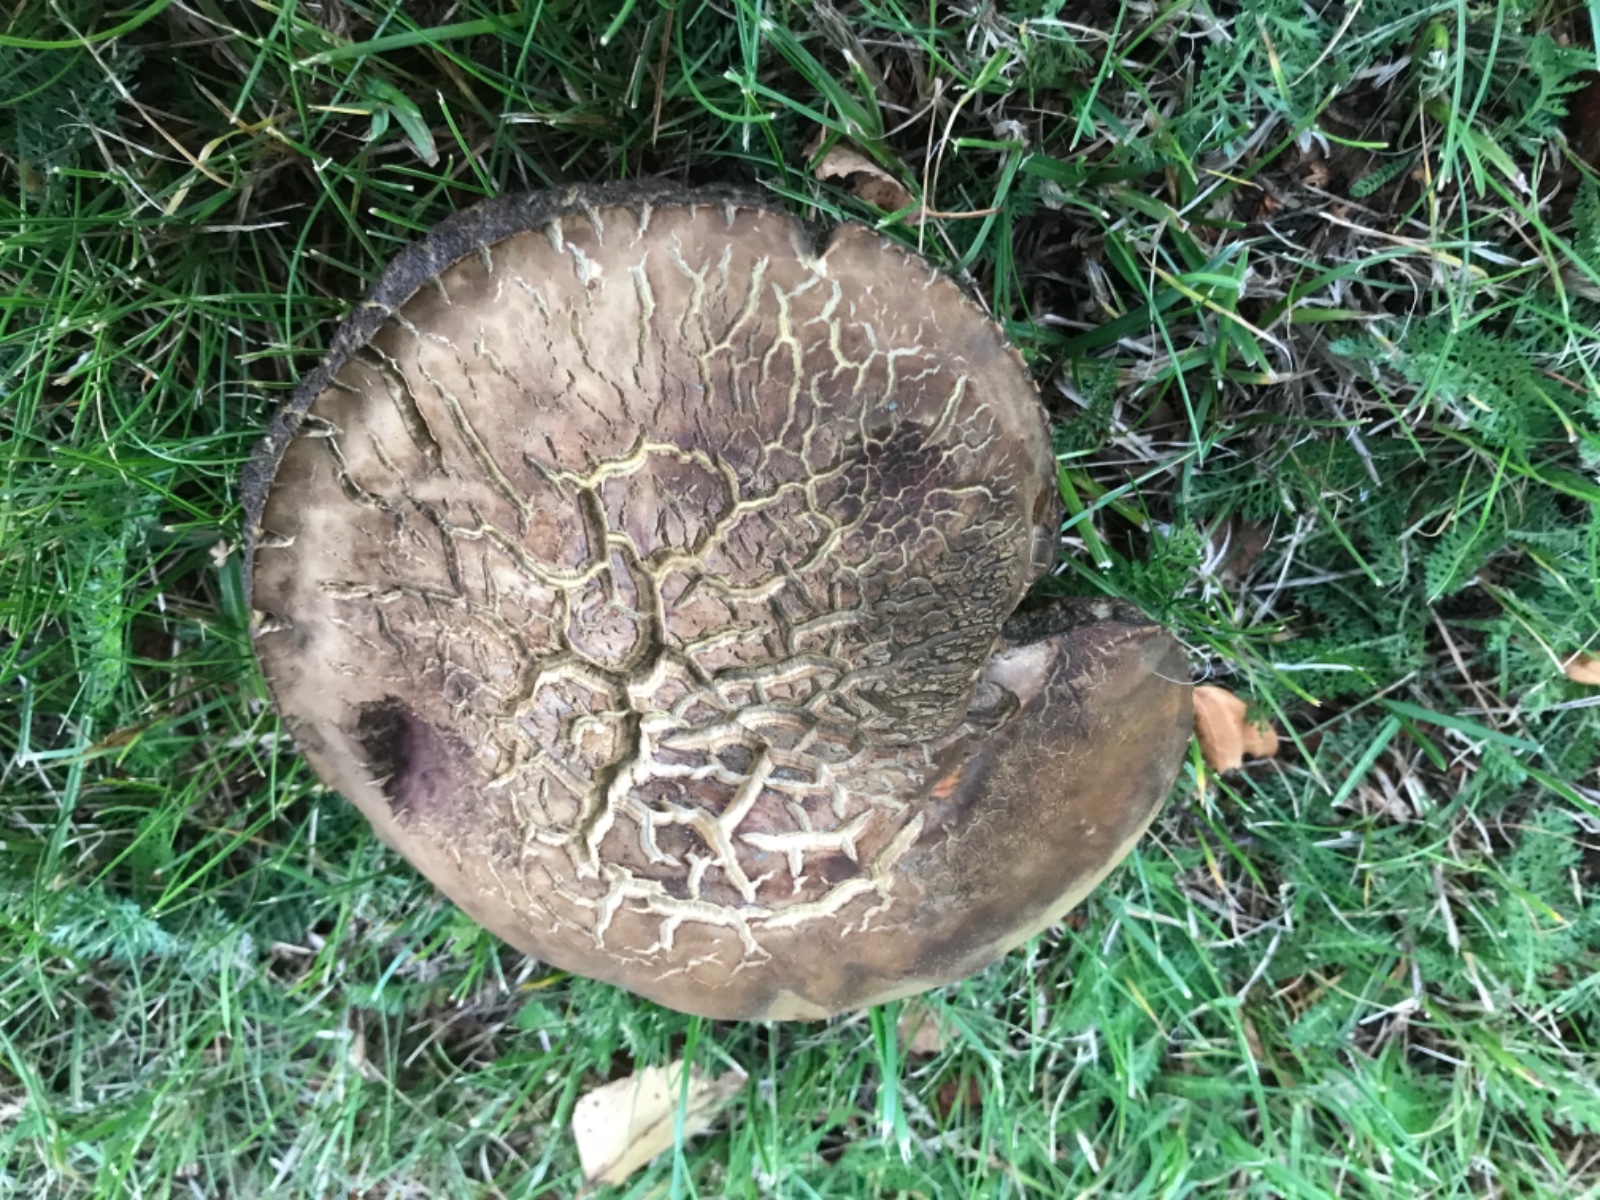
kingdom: Fungi
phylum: Basidiomycota
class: Agaricomycetes
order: Boletales
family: Boletaceae
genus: Suillellus
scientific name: Suillellus luridus
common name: netstokket indigorørhat
